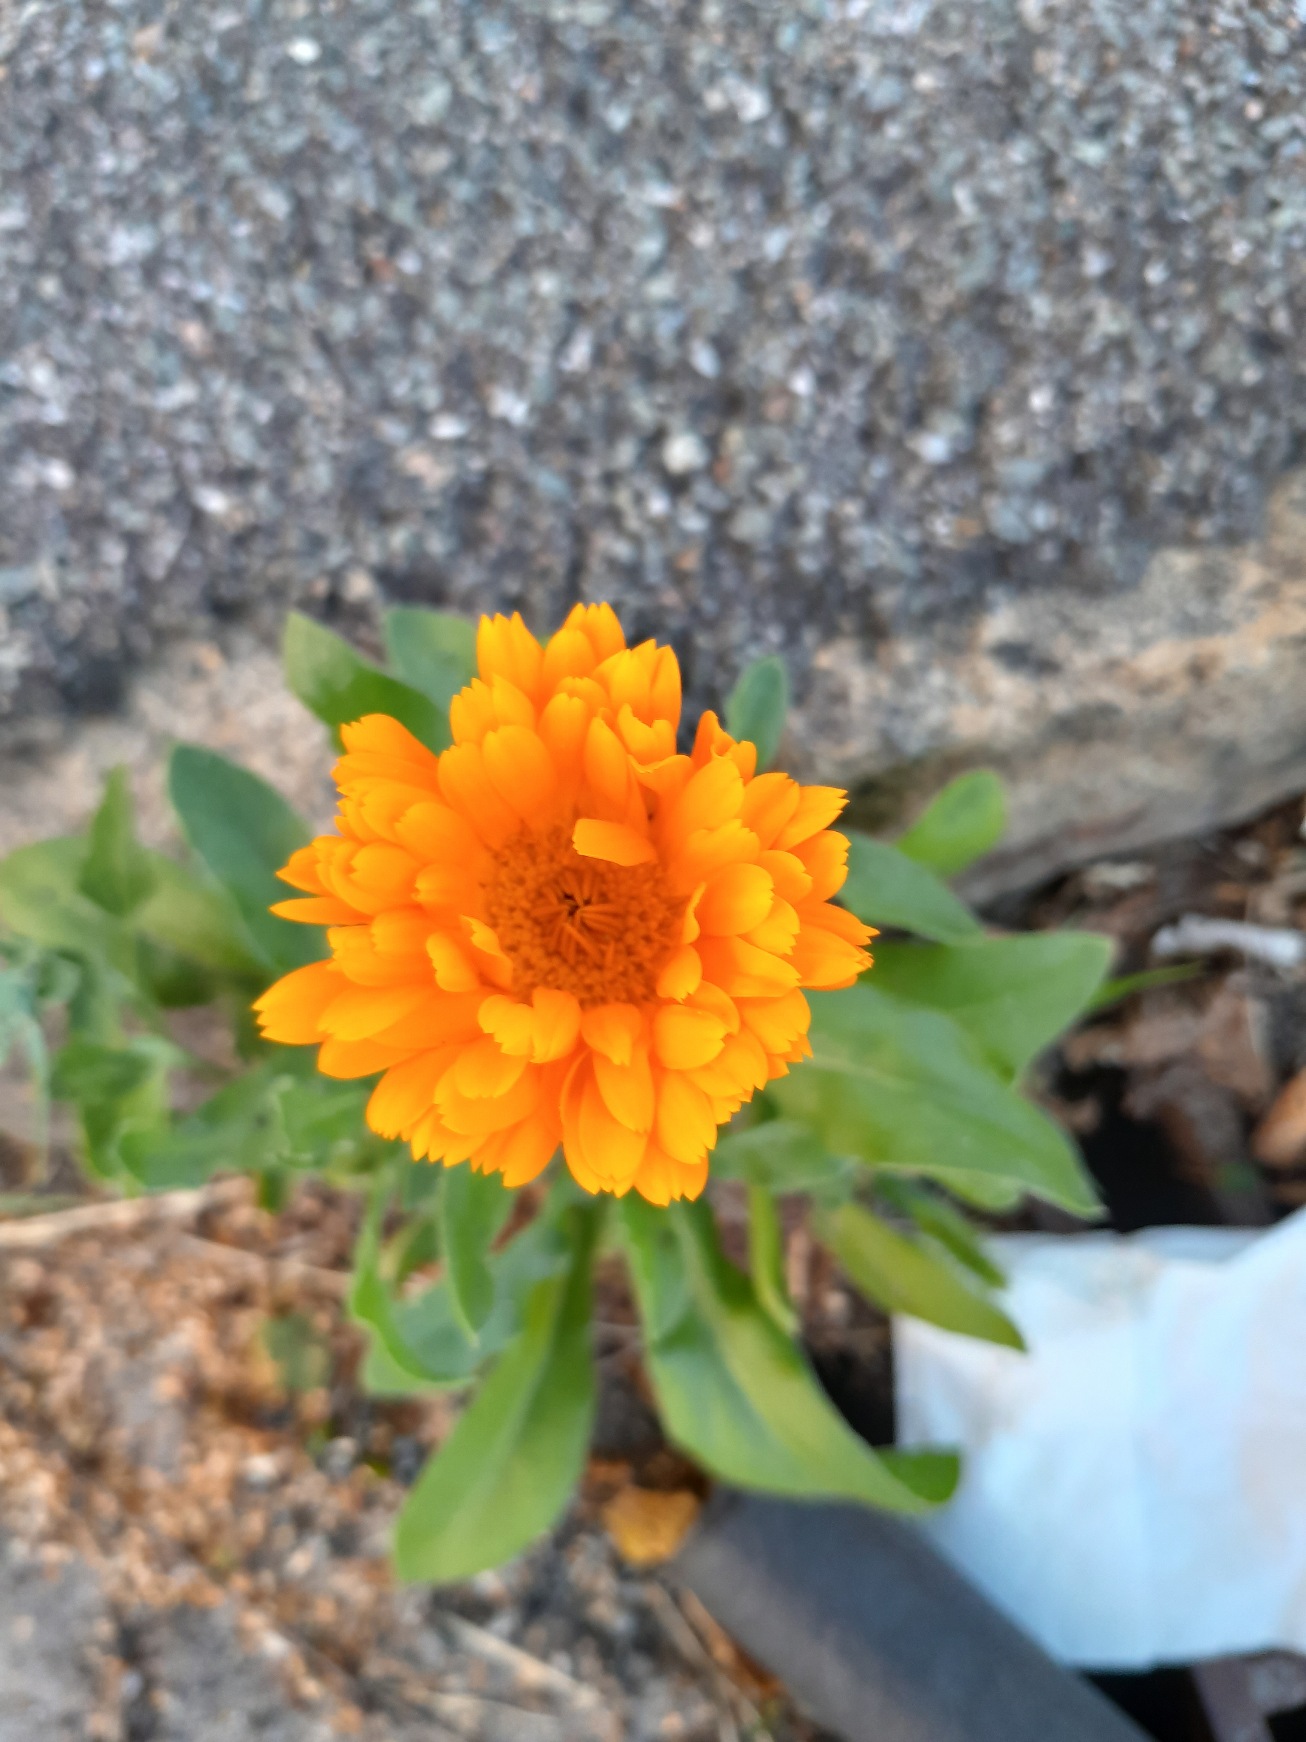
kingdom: Plantae
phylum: Tracheophyta
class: Magnoliopsida
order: Asterales
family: Asteraceae
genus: Calendula
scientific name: Calendula officinalis
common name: Have-morgenfrue
